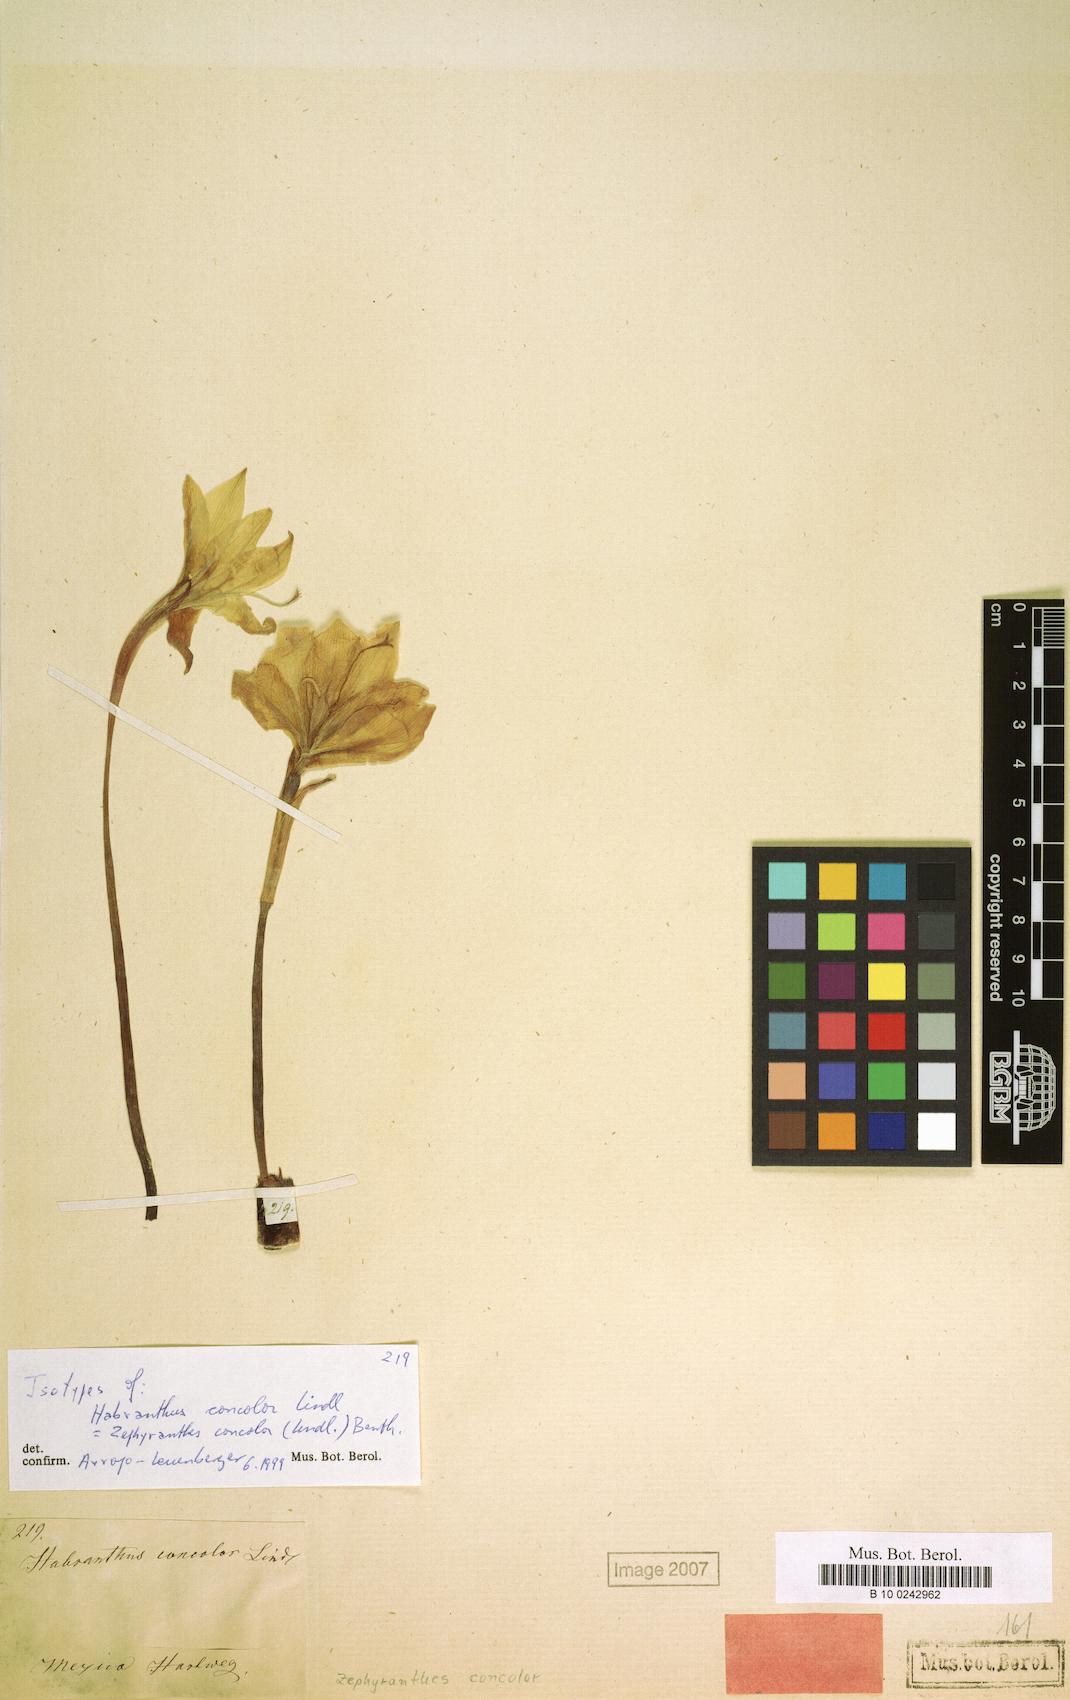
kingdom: Plantae
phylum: Tracheophyta
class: Liliopsida
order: Asparagales
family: Amaryllidaceae
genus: Zephyranthes
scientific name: Zephyranthes concolor
